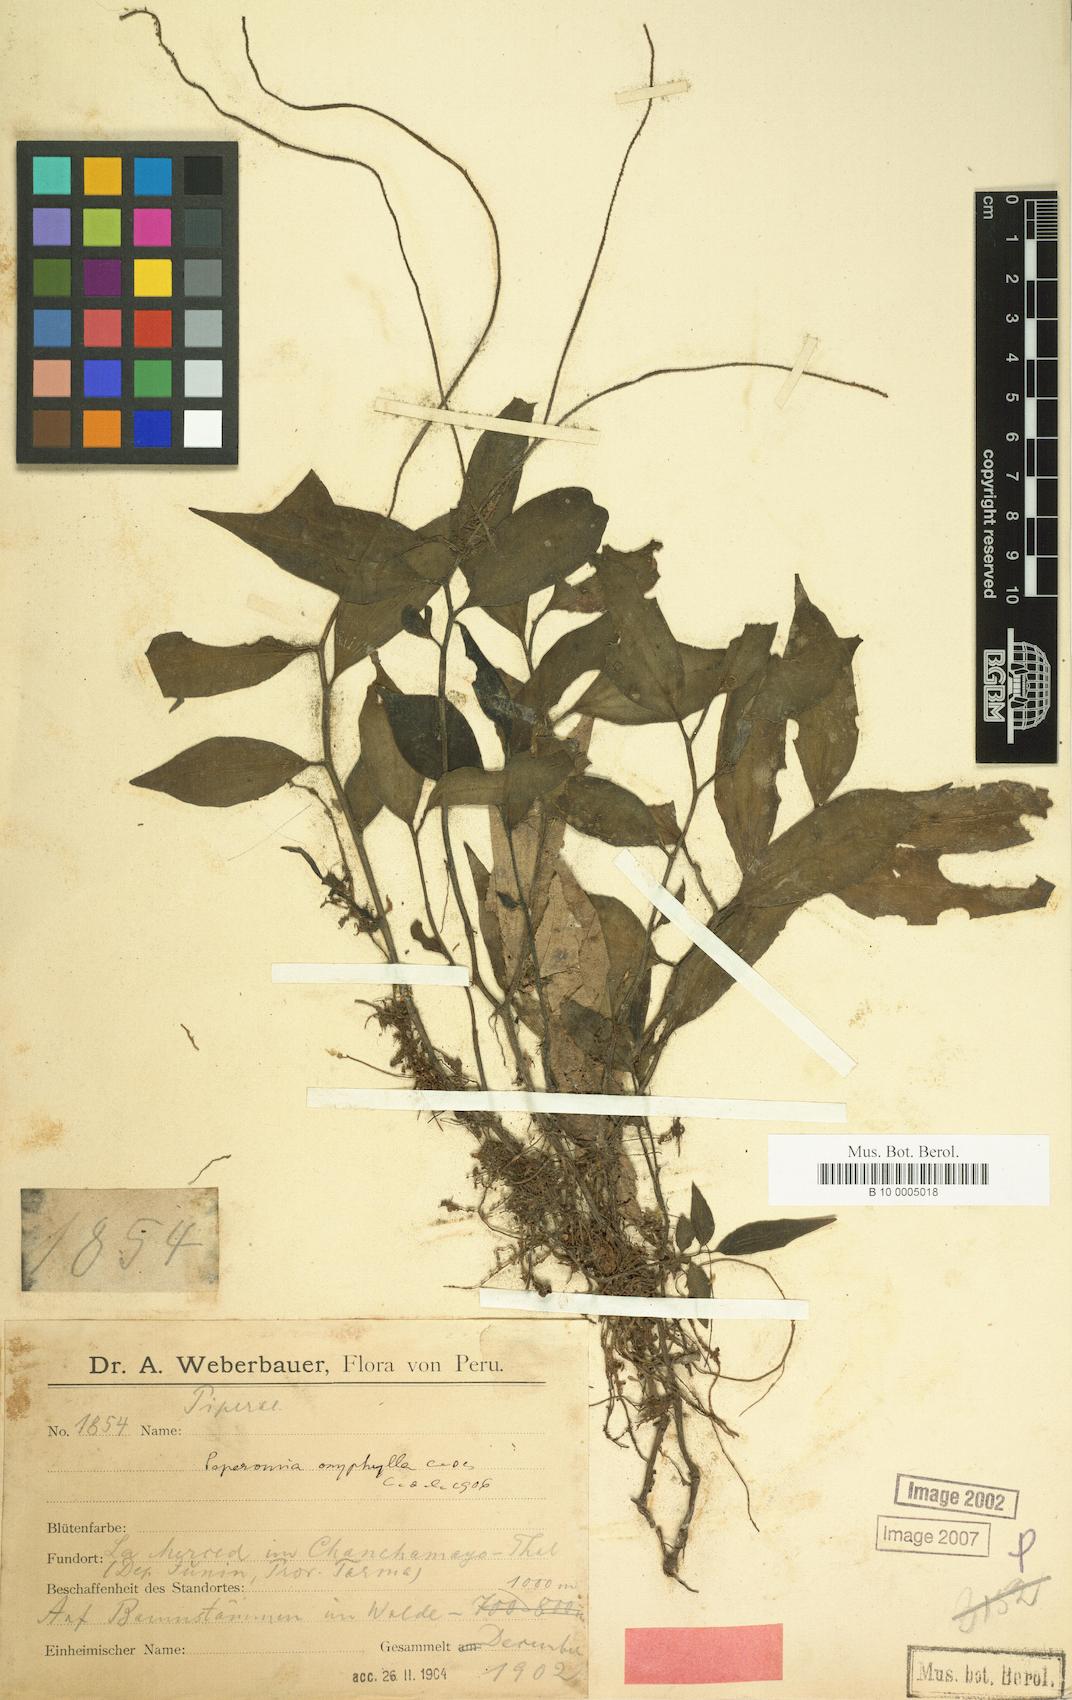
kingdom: Plantae
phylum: Tracheophyta
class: Magnoliopsida
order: Piperales
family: Piperaceae
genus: Peperomia
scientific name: Peperomia oxyphylla
